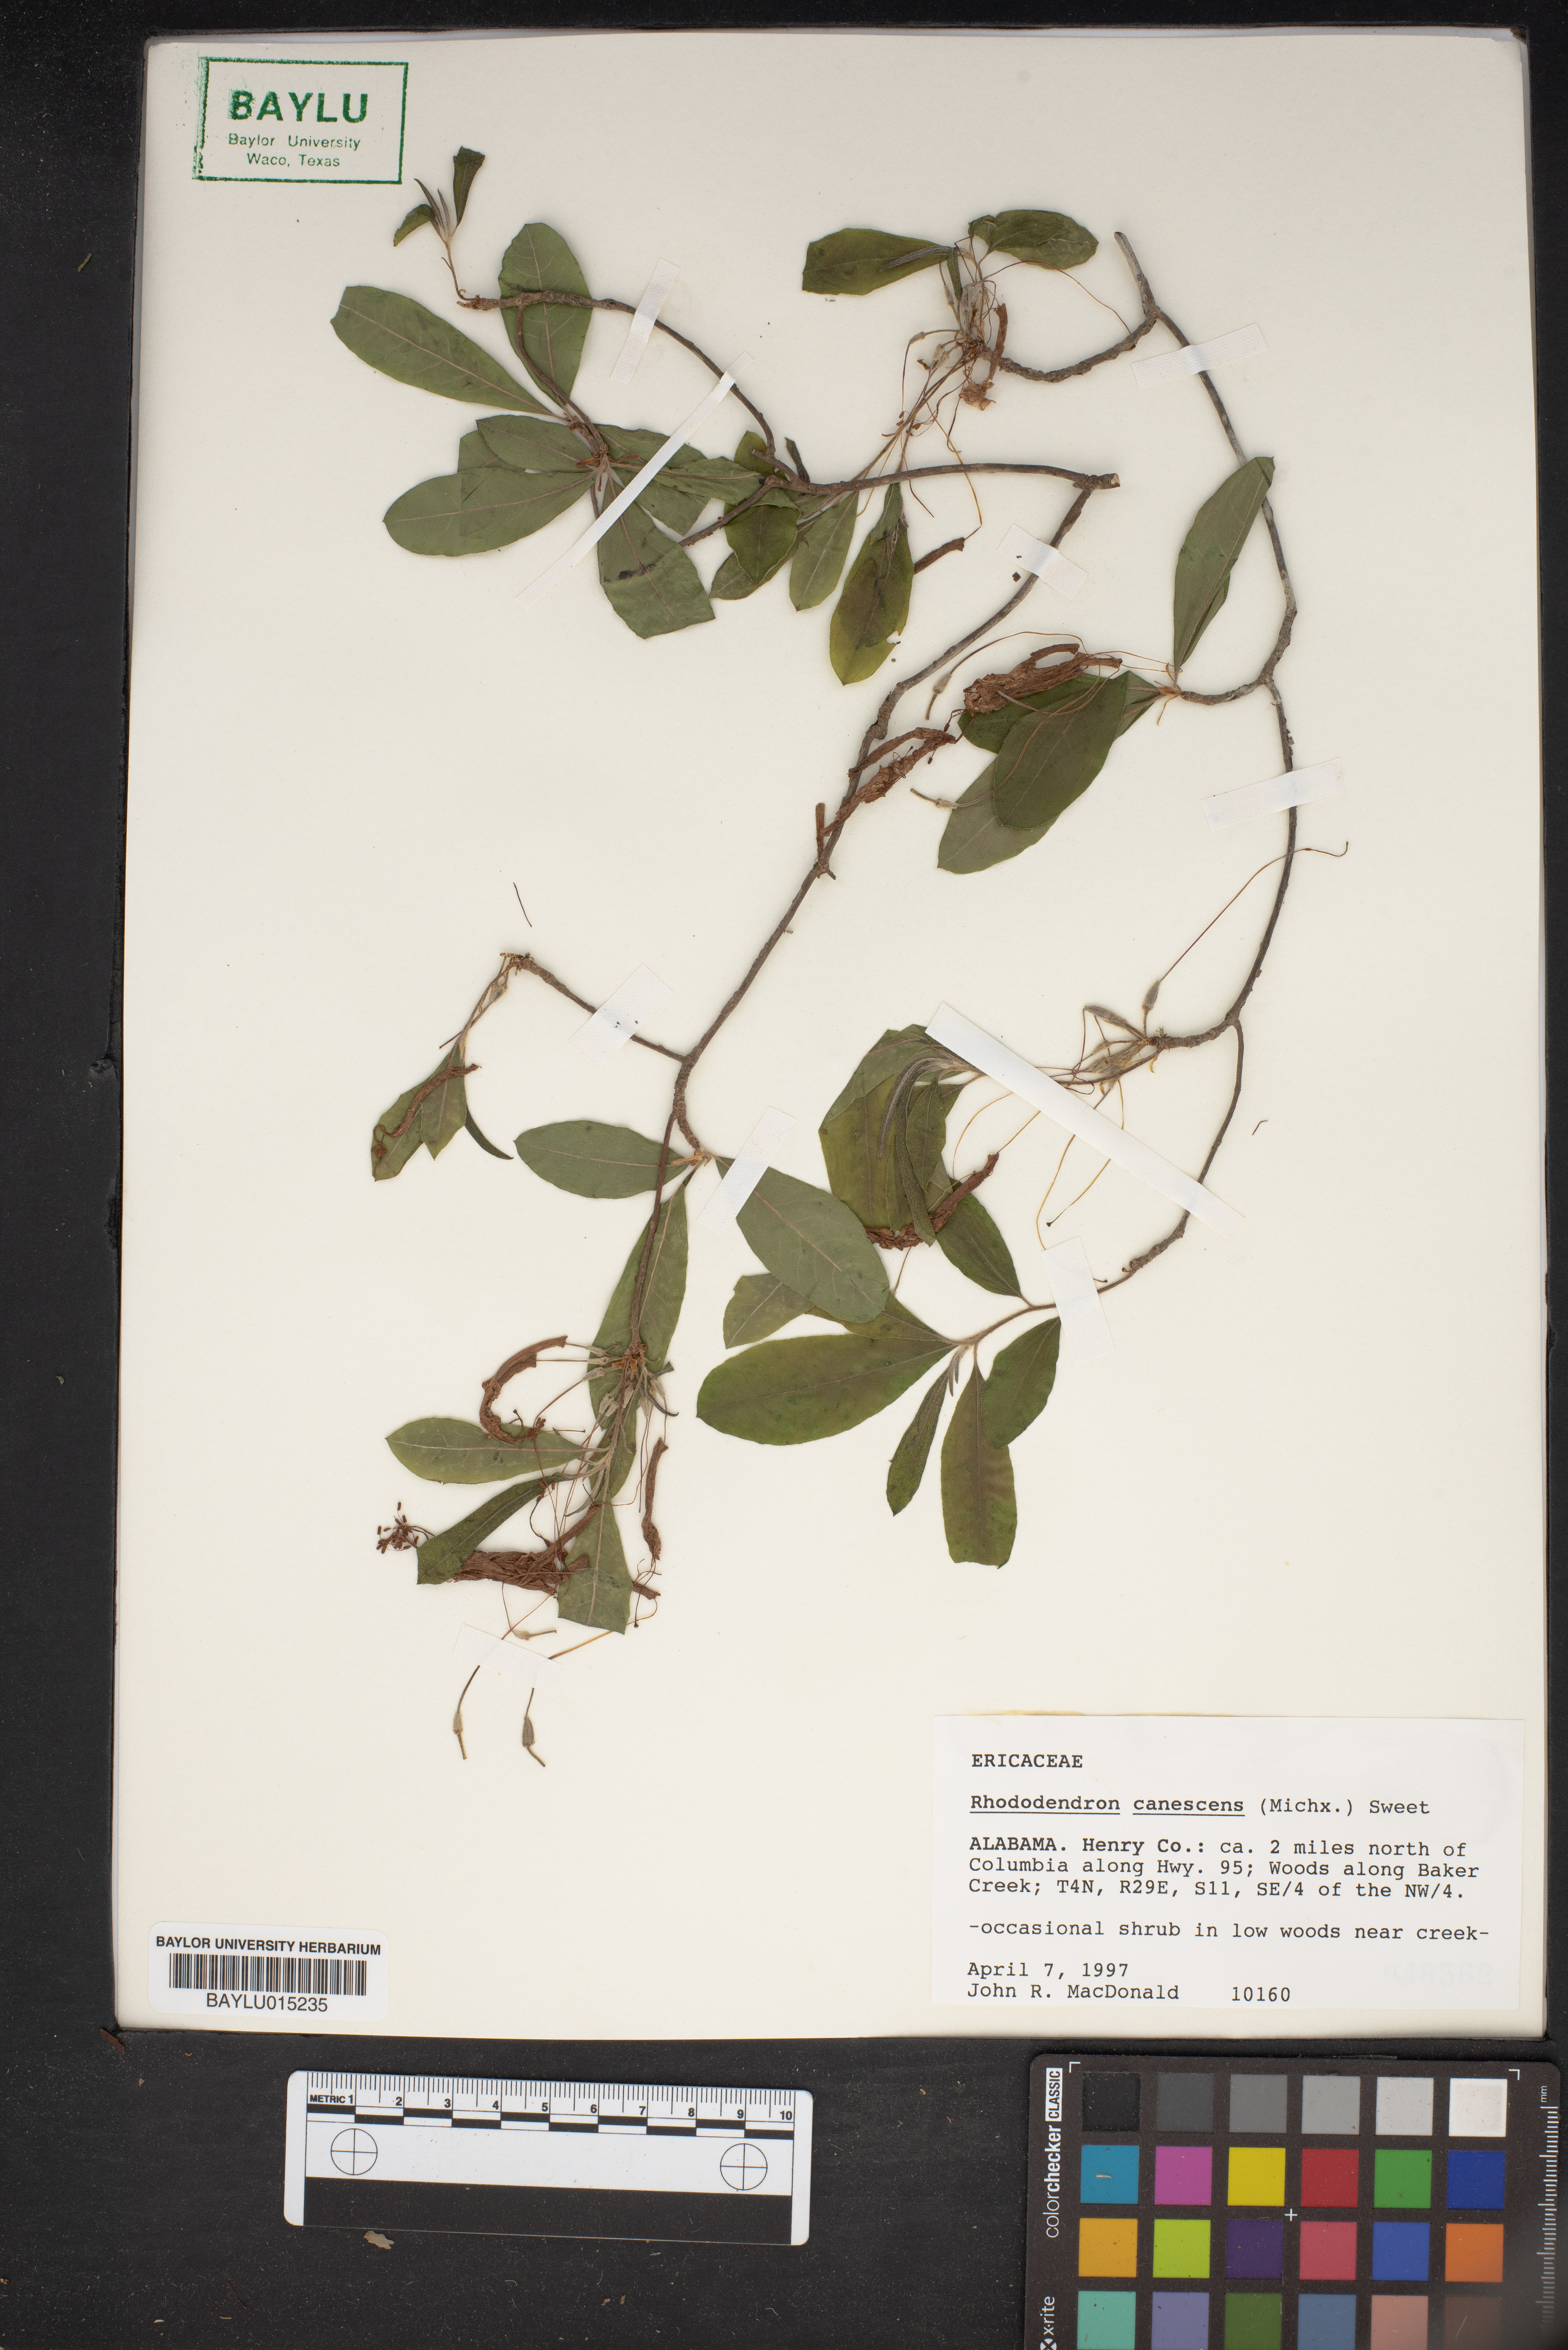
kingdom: Plantae
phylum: Tracheophyta
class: Magnoliopsida
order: Ericales
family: Ericaceae
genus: Rhododendron
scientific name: Rhododendron canescens
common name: Mountain azalea
